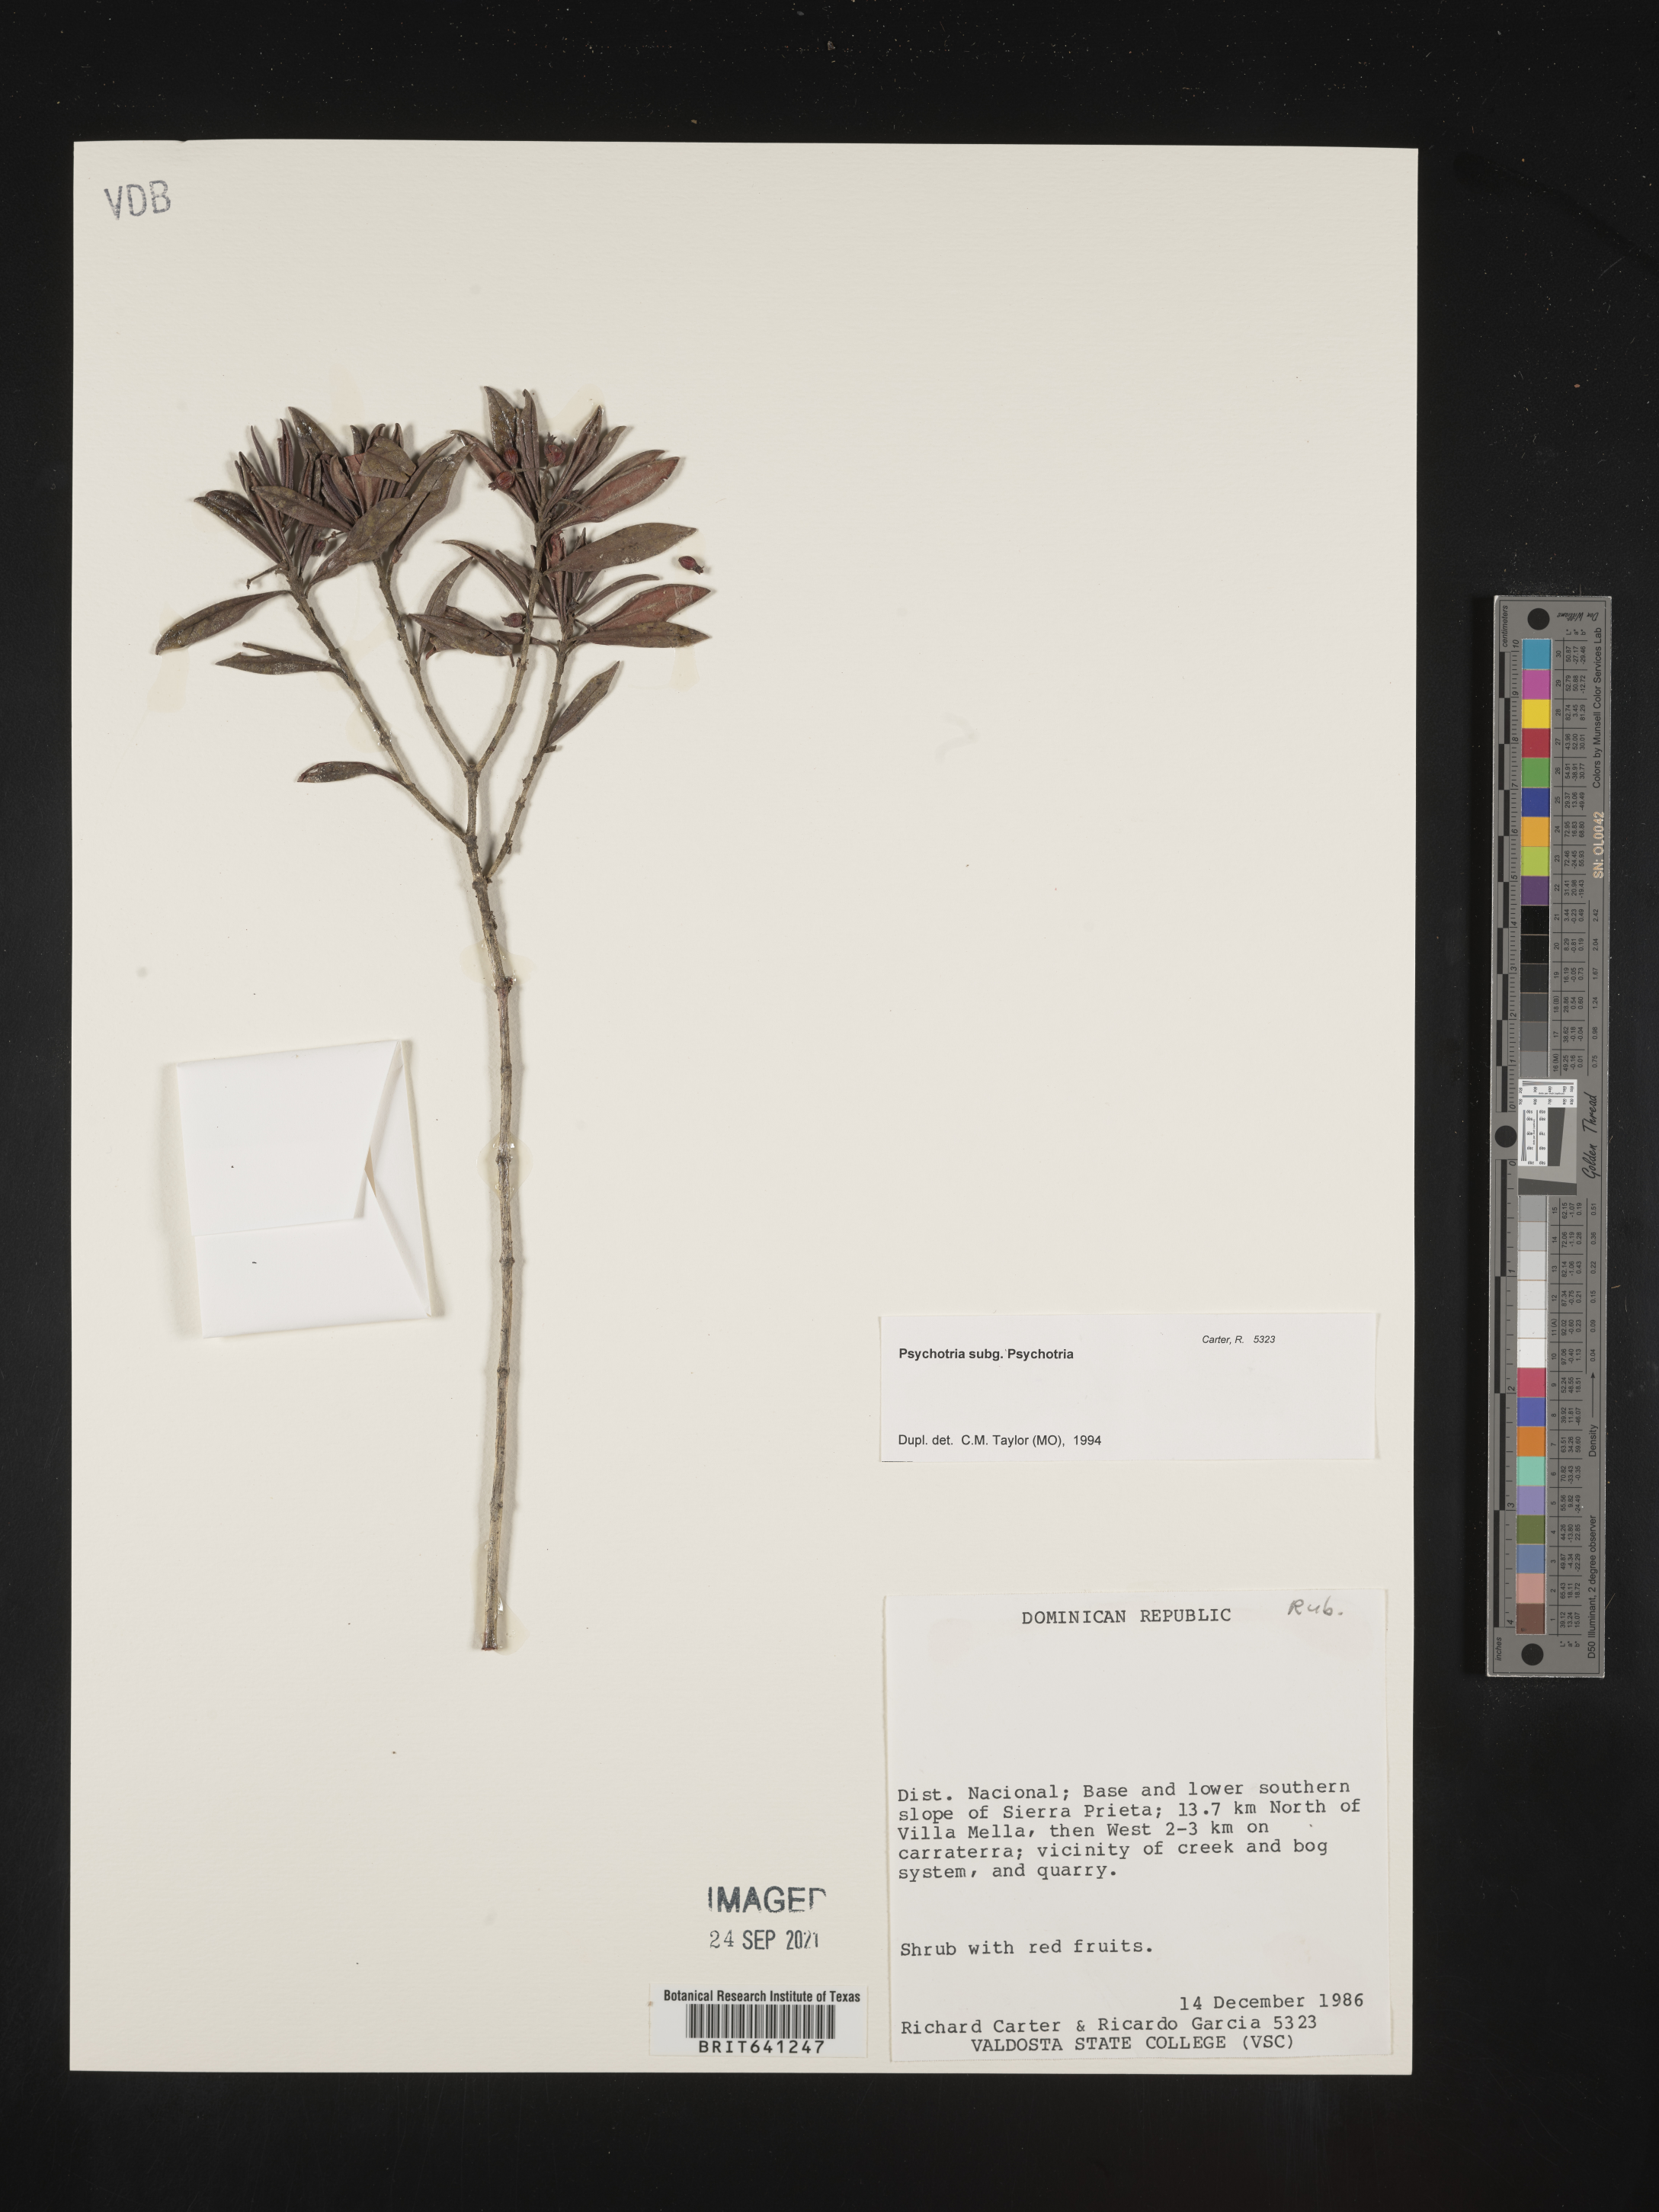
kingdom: Plantae
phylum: Tracheophyta
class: Magnoliopsida
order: Gentianales
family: Rubiaceae
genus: Psychotria
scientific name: Psychotria
